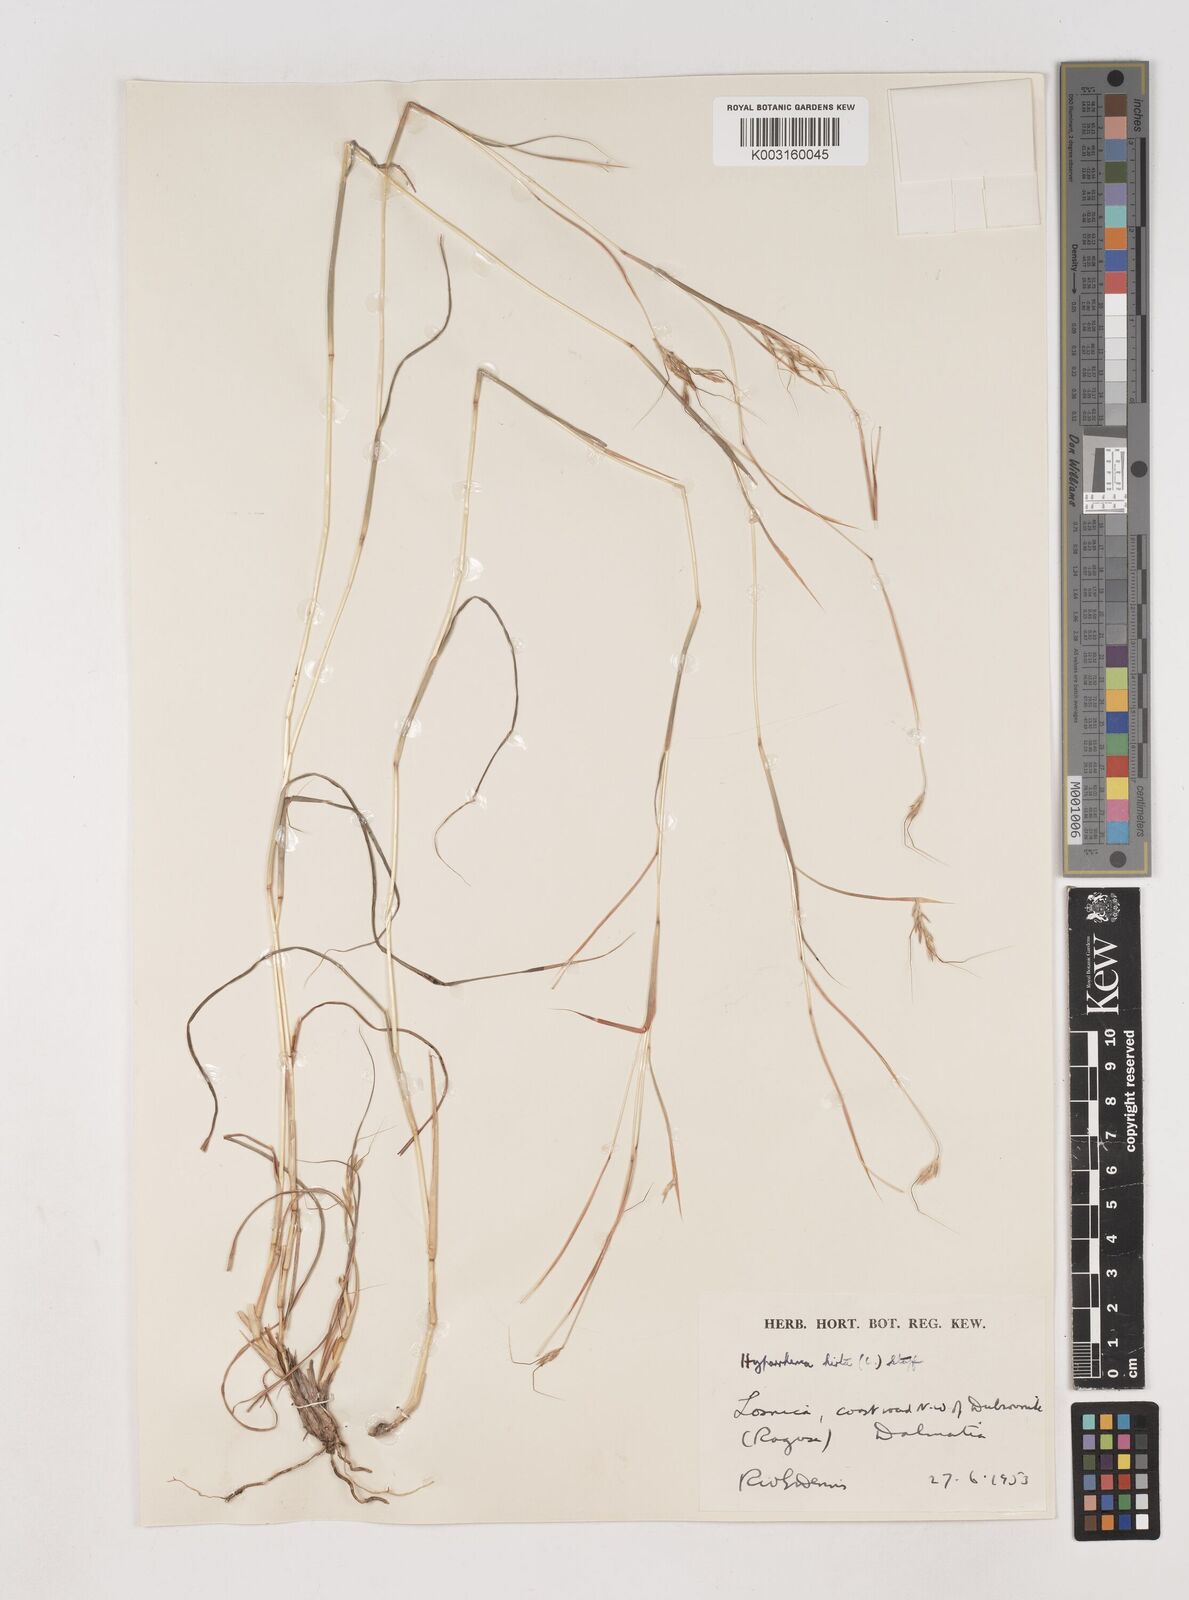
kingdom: Plantae
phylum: Tracheophyta
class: Liliopsida
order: Poales
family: Poaceae
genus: Hyparrhenia
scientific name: Hyparrhenia hirta
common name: Thatching grass
